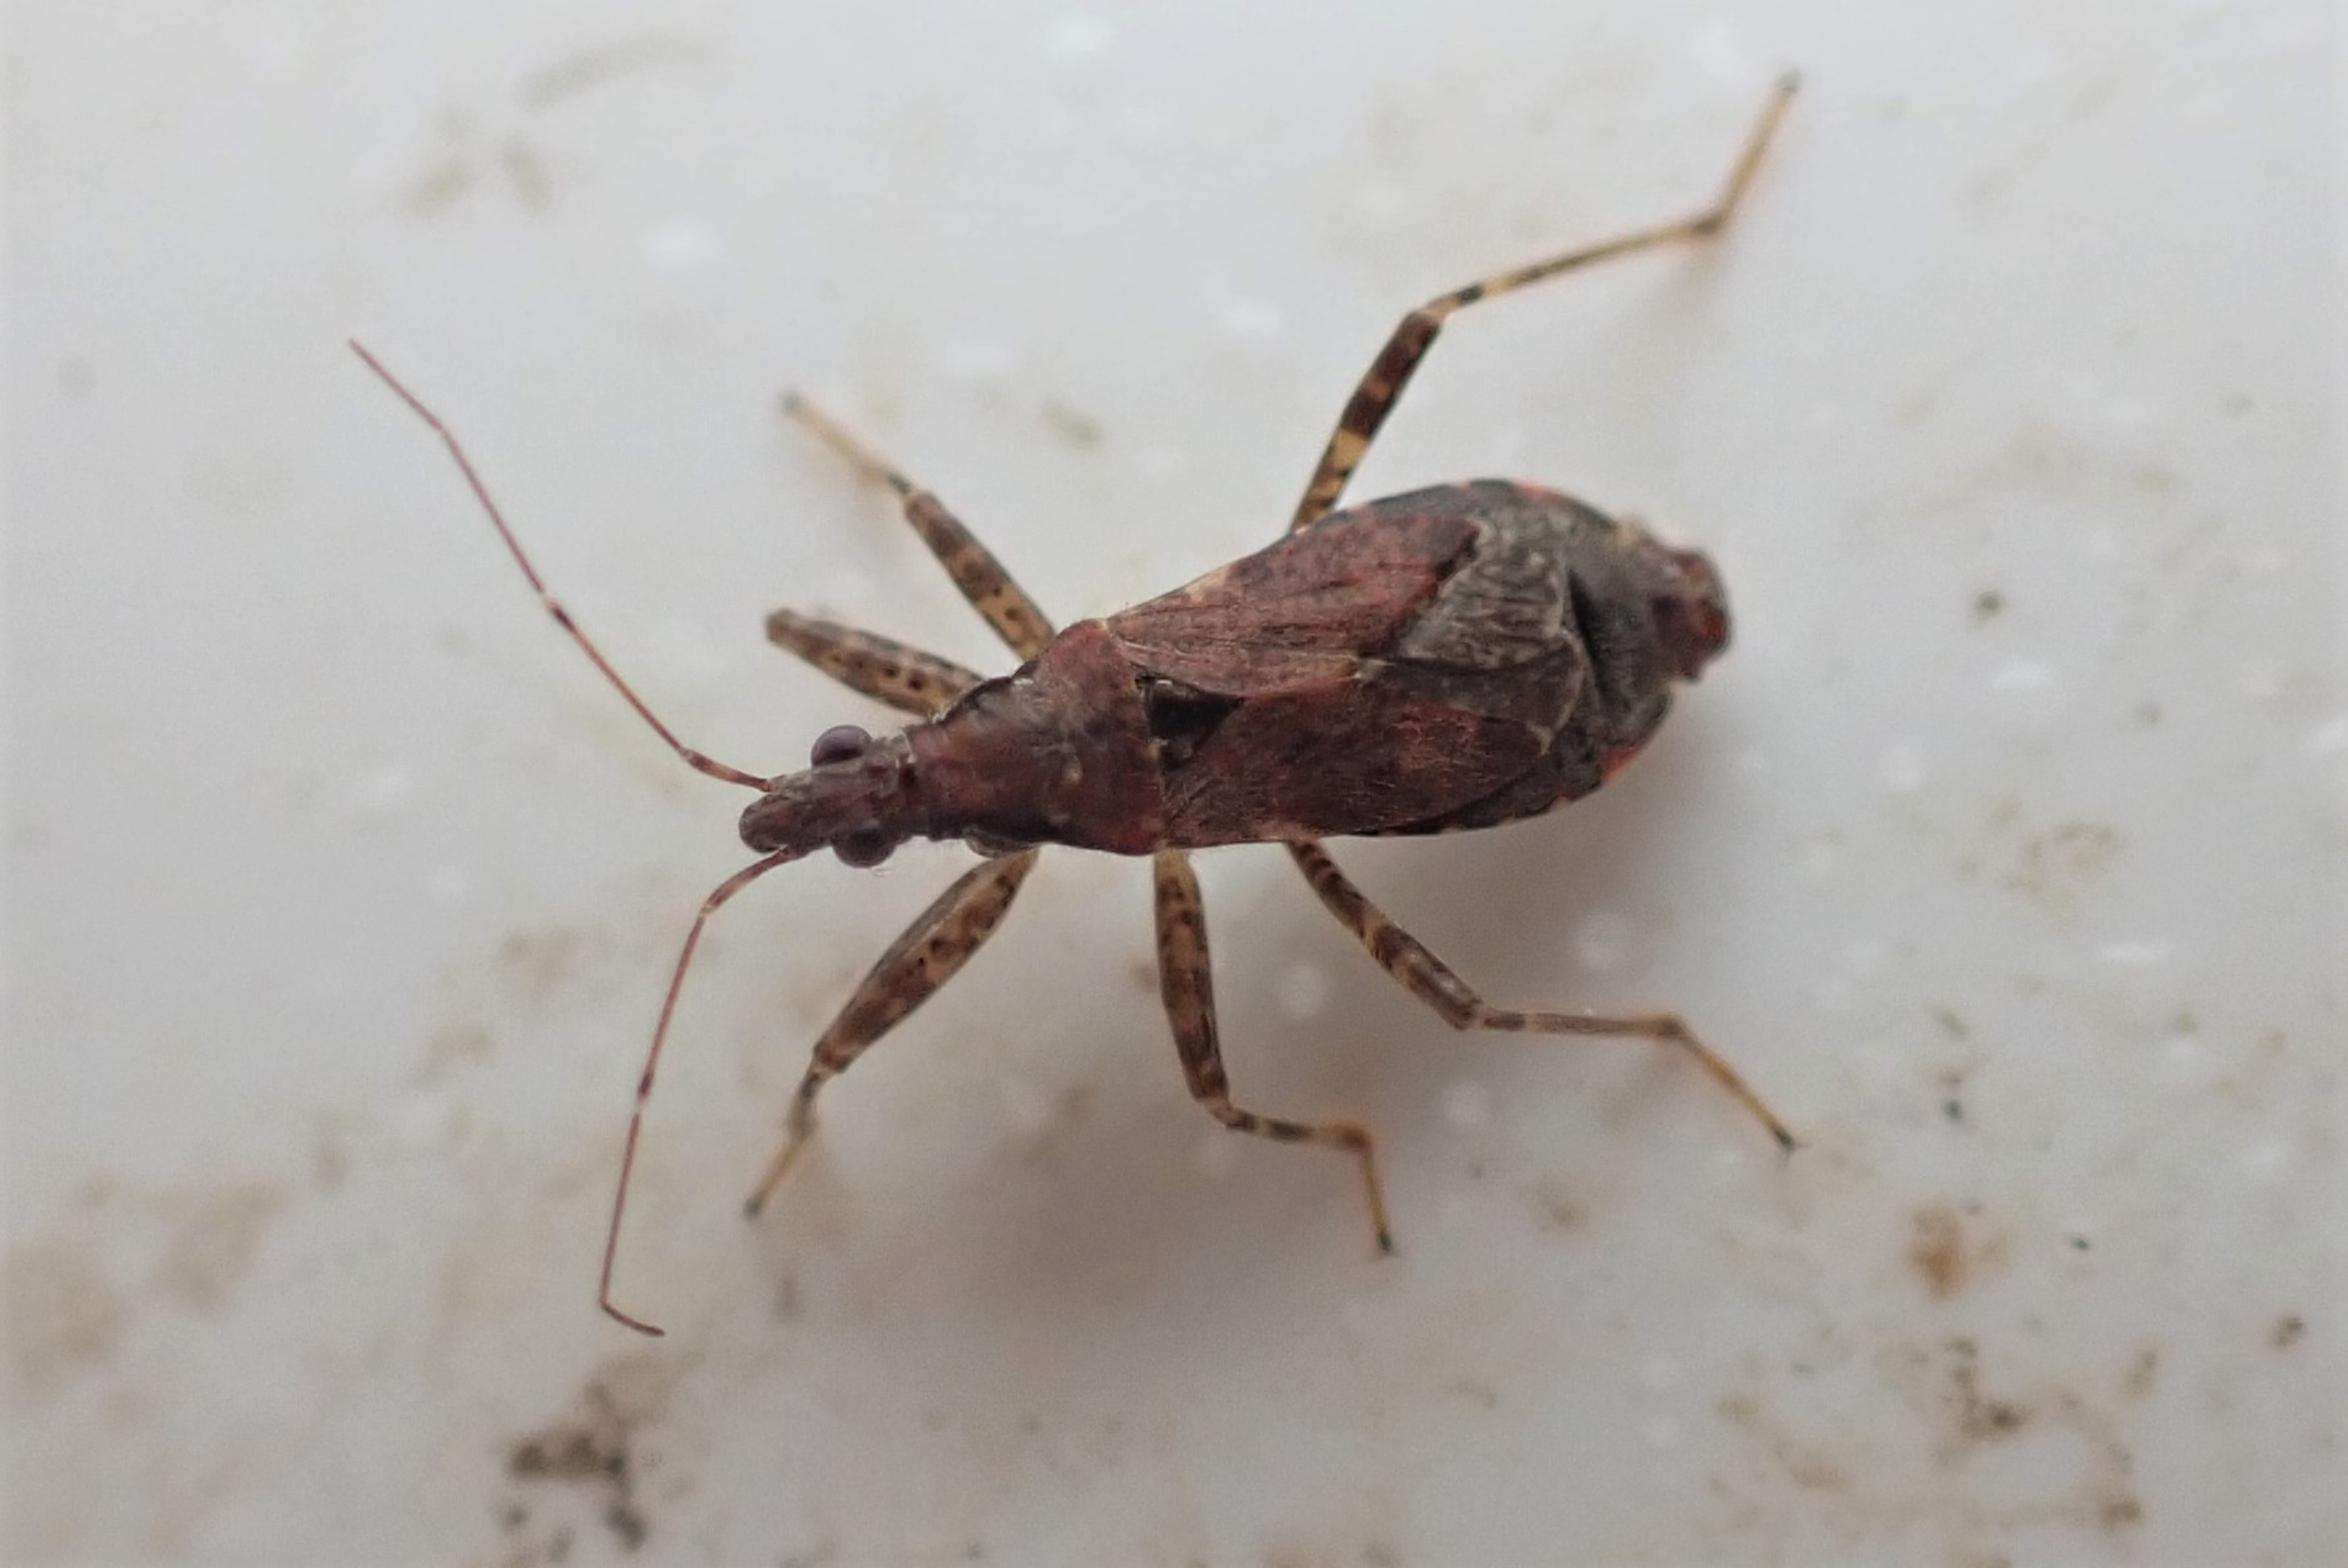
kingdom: Animalia
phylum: Arthropoda
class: Insecta
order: Hemiptera
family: Nabidae
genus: Himacerus
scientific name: Himacerus mirmicoides
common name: Myrenymfetæge
